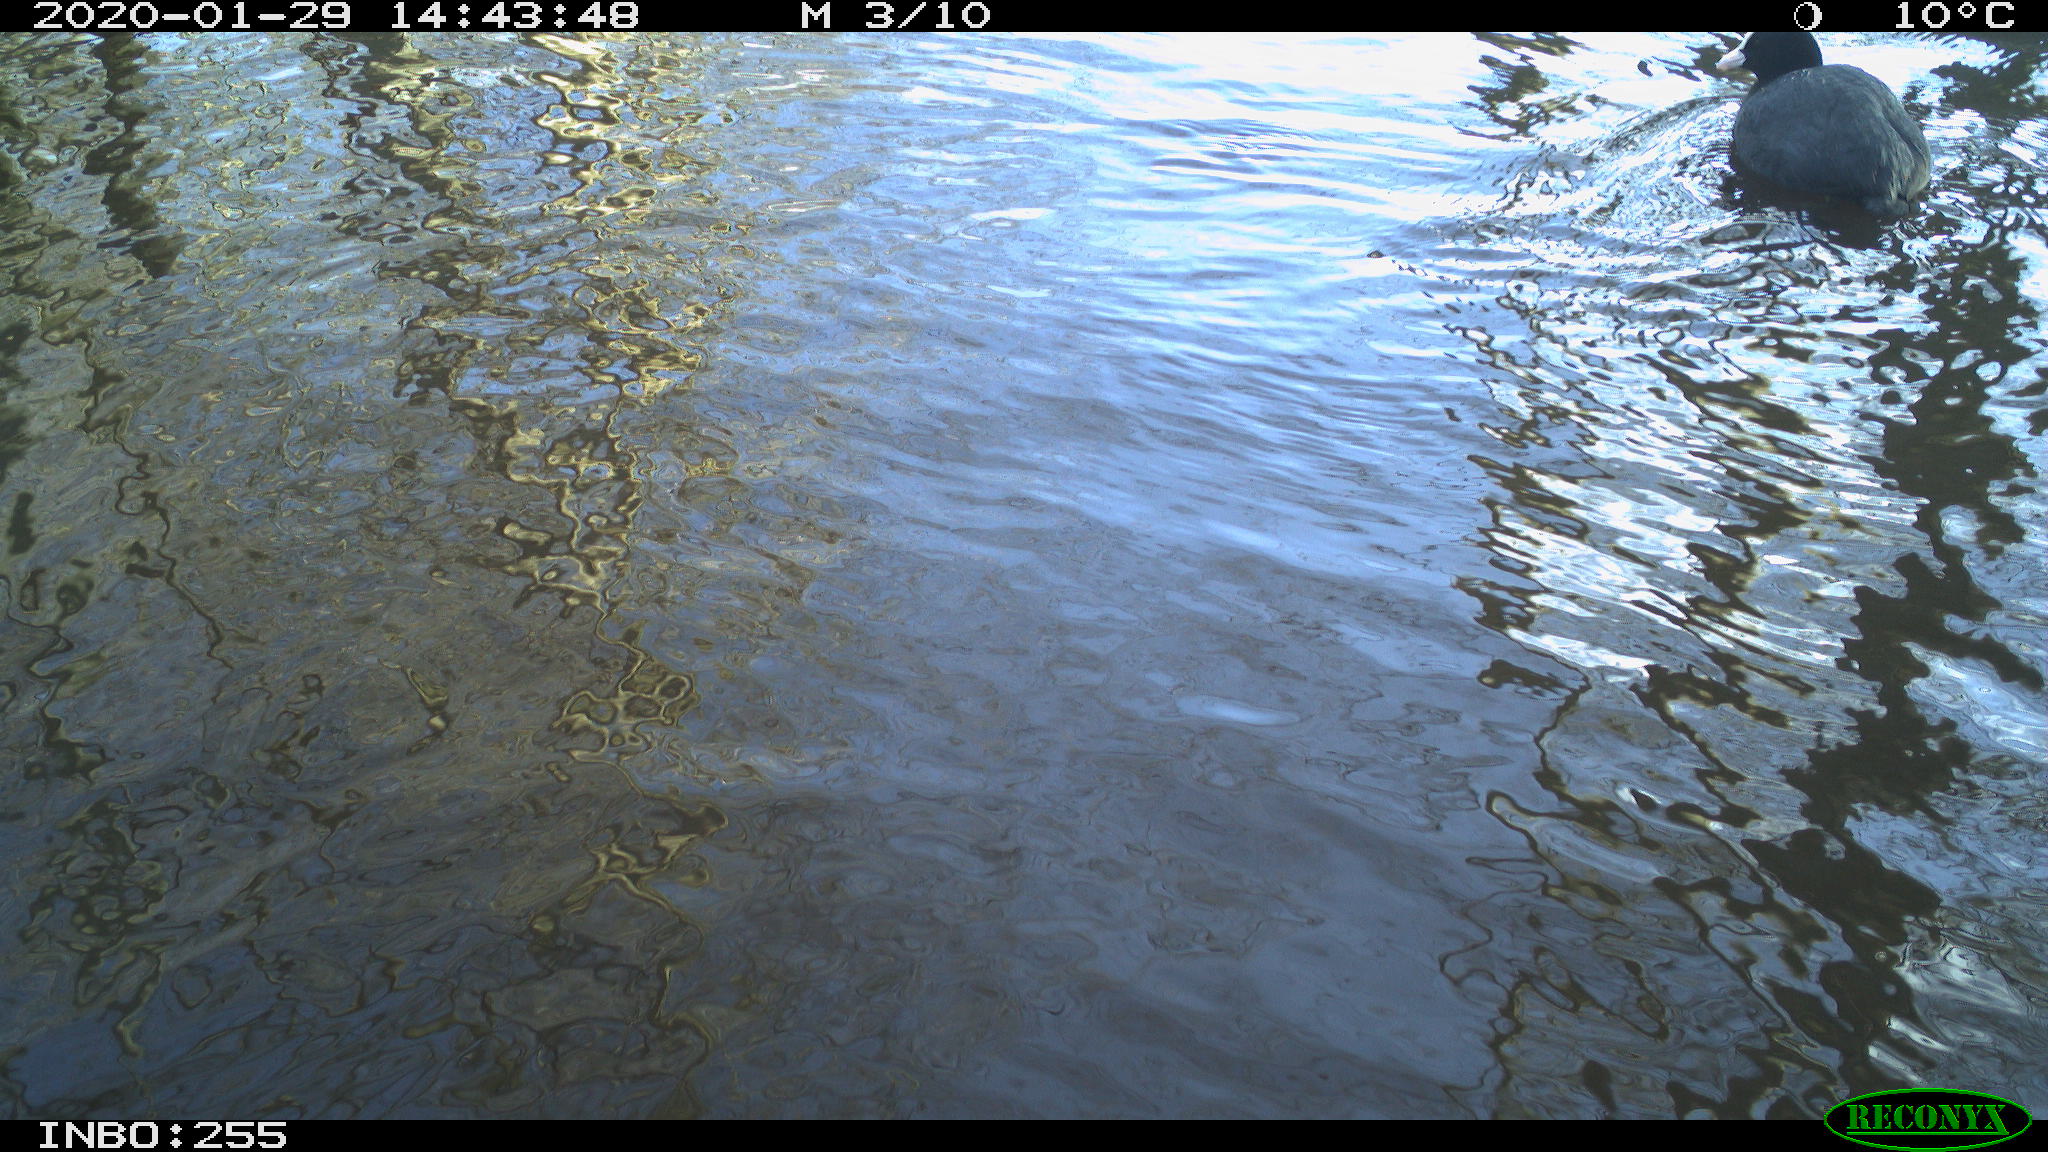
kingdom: Animalia
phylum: Chordata
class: Aves
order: Gruiformes
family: Rallidae
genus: Fulica
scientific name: Fulica atra
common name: Eurasian coot
